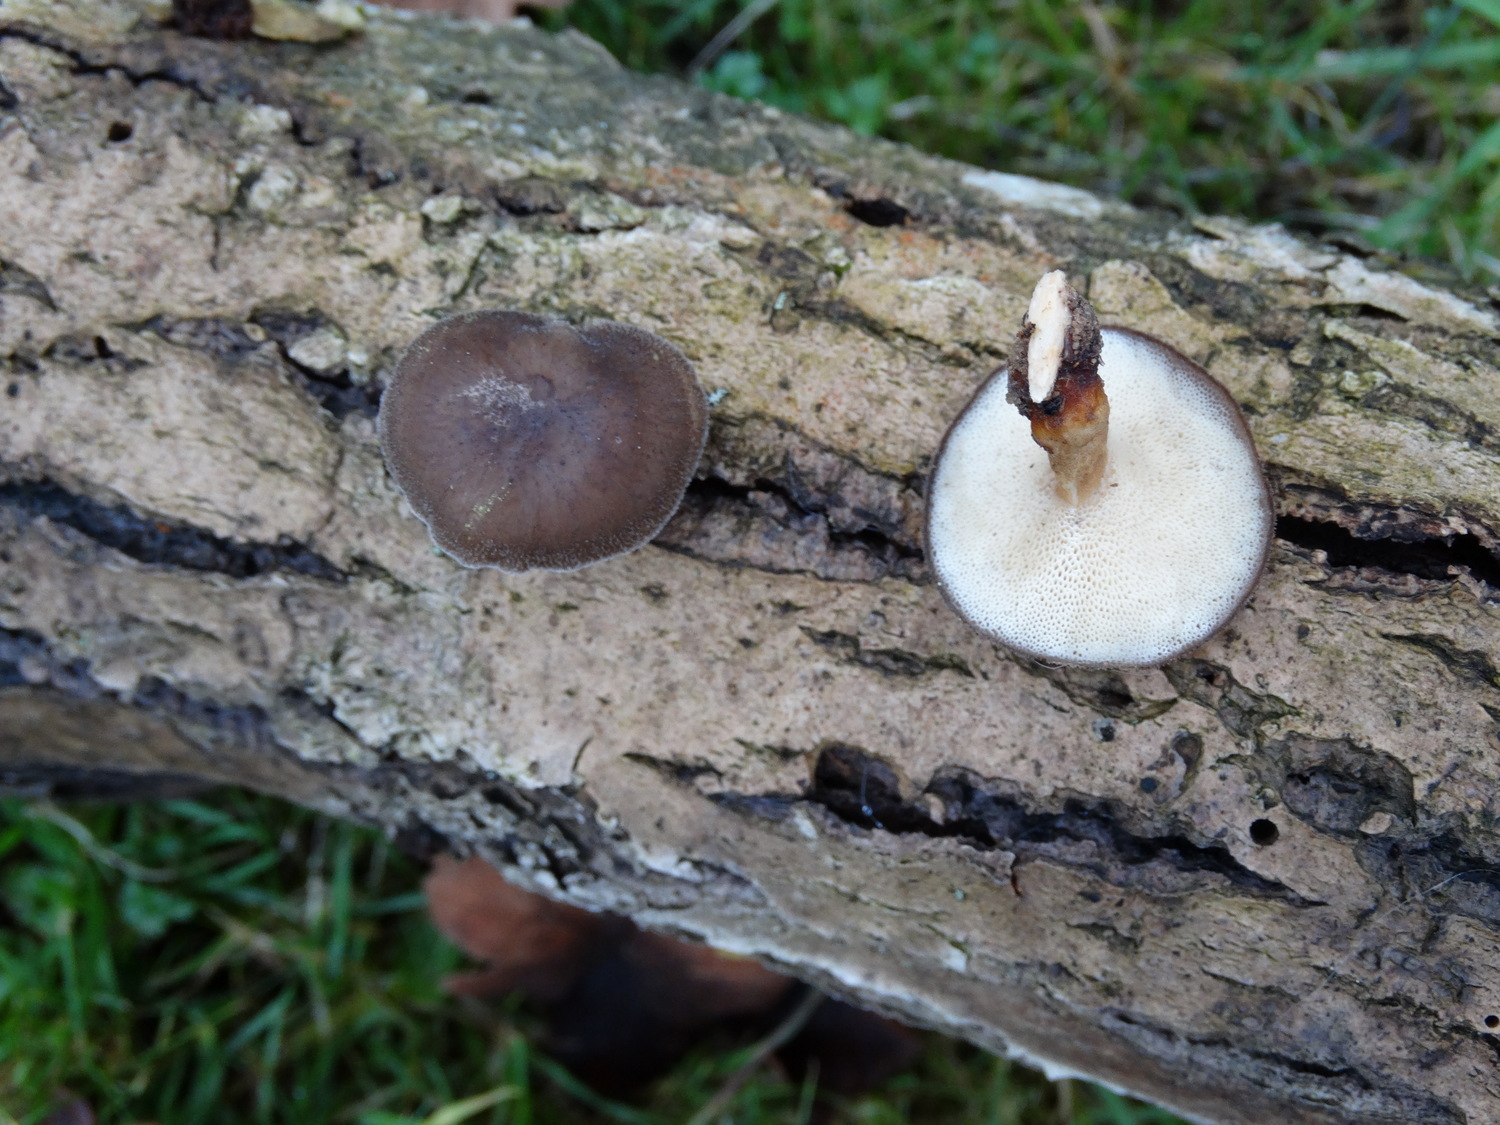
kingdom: Fungi
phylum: Basidiomycota
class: Agaricomycetes
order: Polyporales
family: Polyporaceae
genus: Lentinus
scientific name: Lentinus brumalis
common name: vinter-stilkporesvamp
